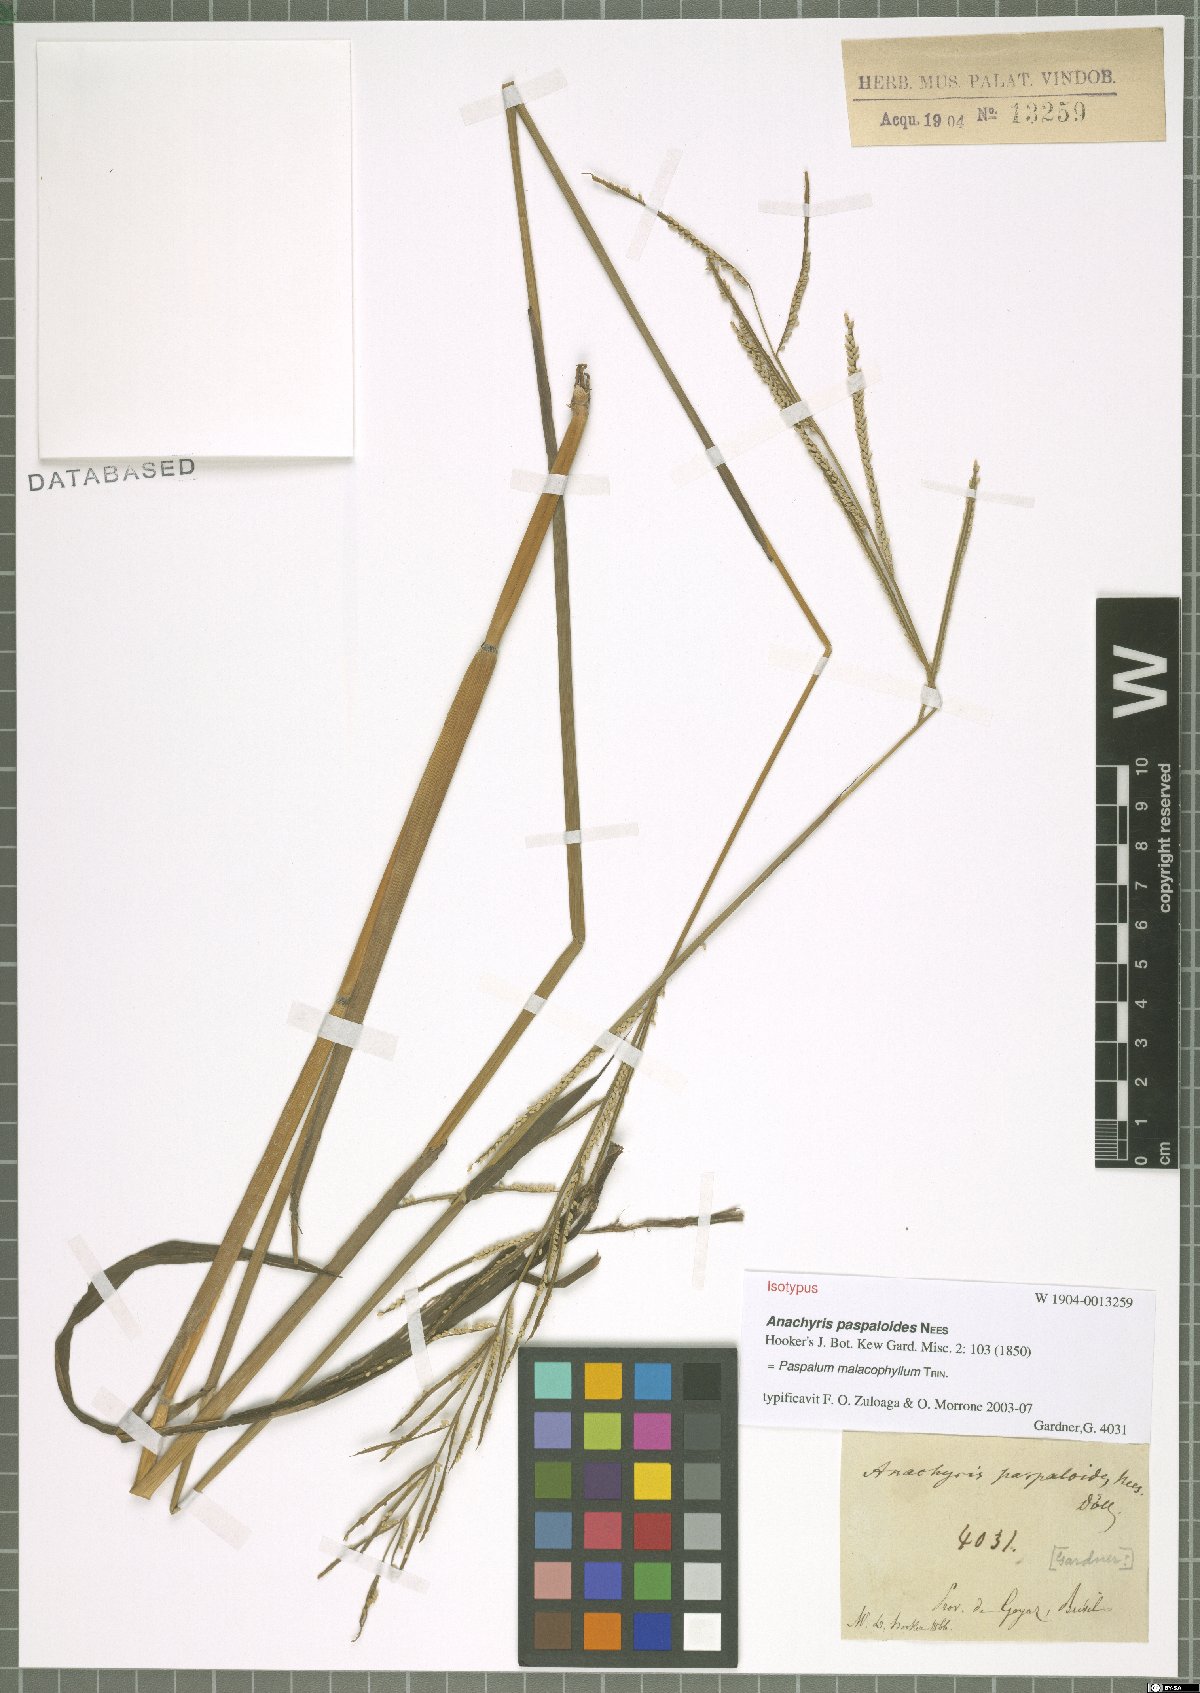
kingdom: Plantae
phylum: Tracheophyta
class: Liliopsida
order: Poales
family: Poaceae
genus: Paspalum
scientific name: Paspalum malacophyllum
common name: Ribbed paspalum
